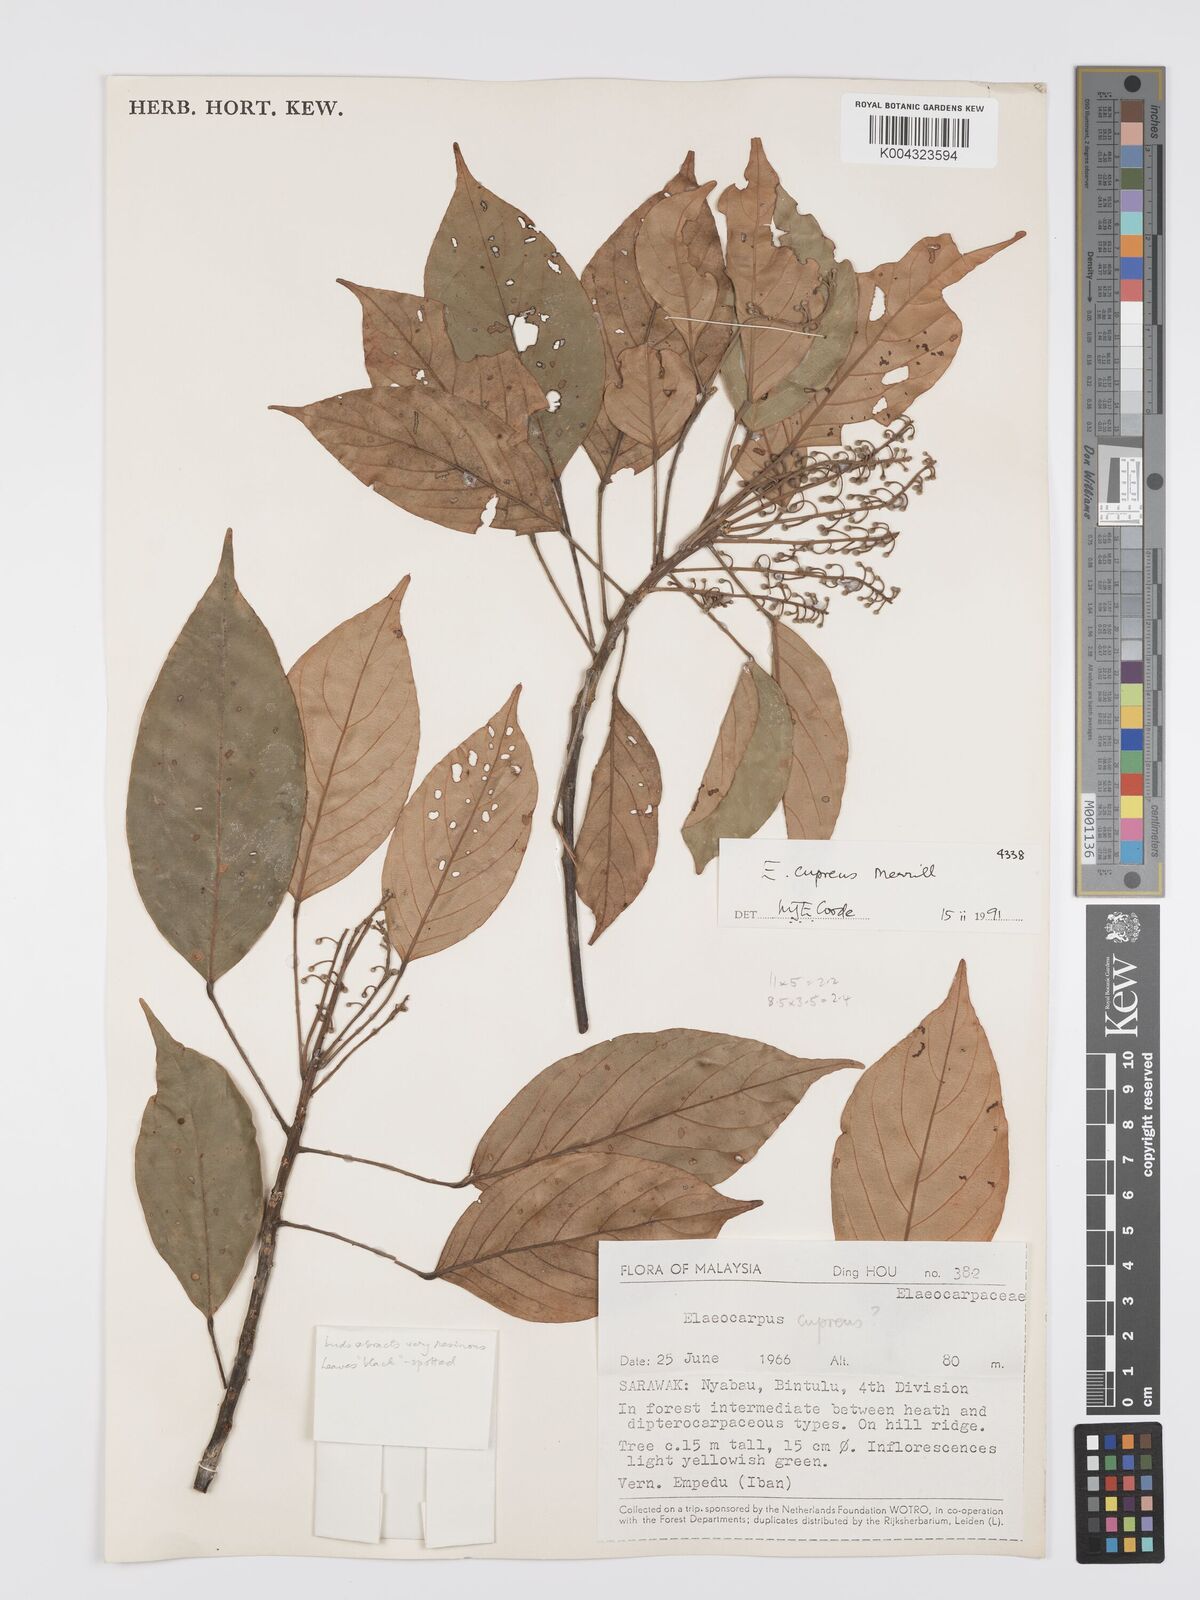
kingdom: Plantae
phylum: Tracheophyta
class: Magnoliopsida
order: Oxalidales
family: Elaeocarpaceae
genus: Elaeocarpus
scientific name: Elaeocarpus cupreus
